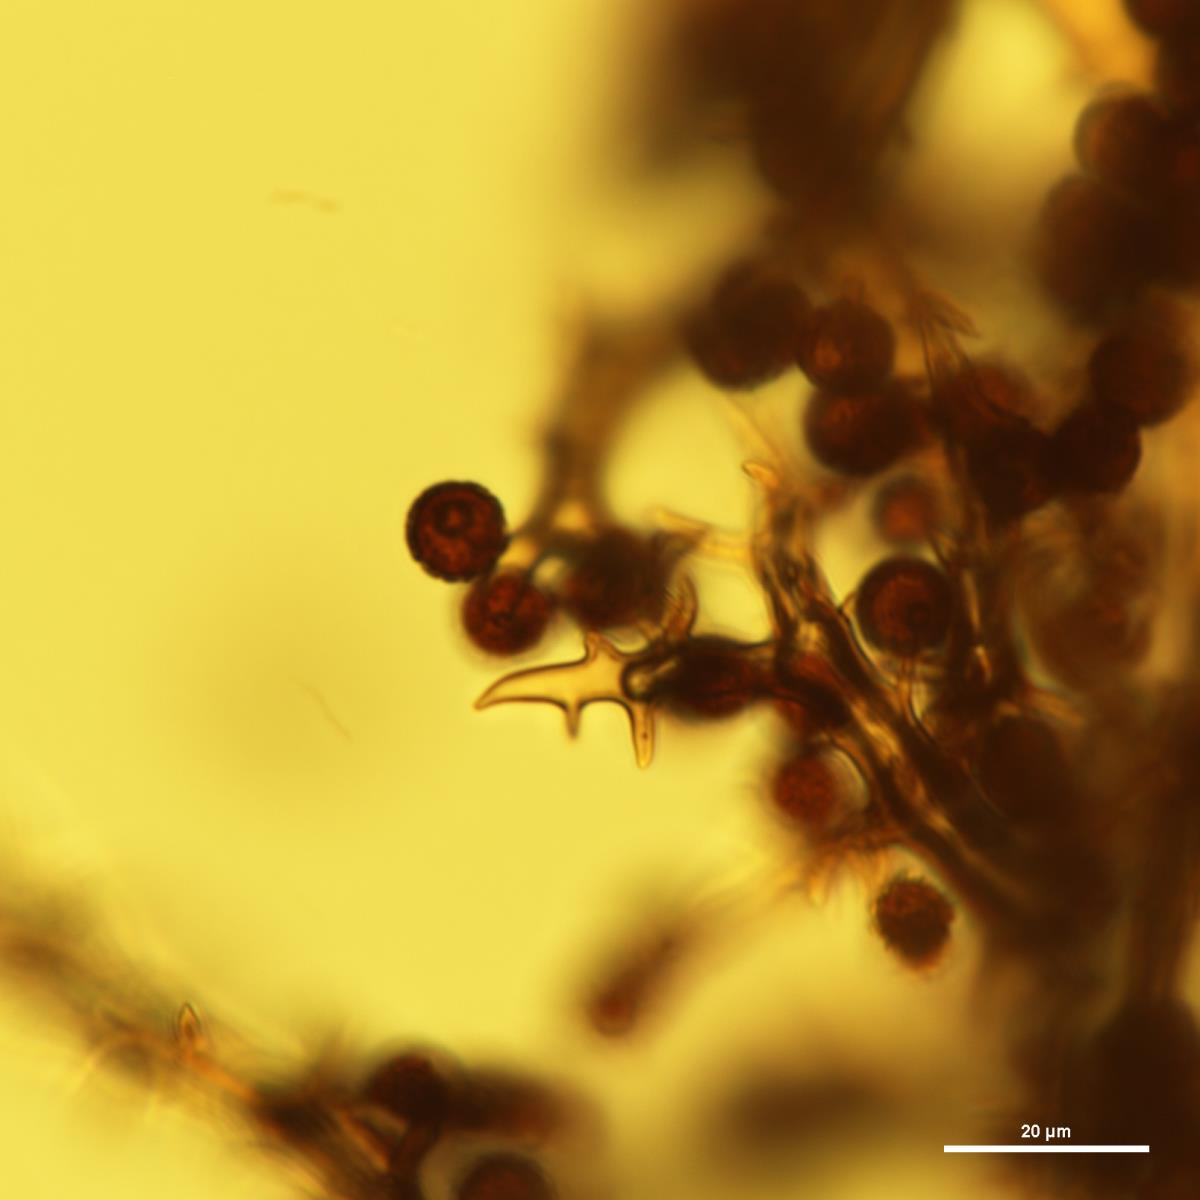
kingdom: Fungi
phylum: Basidiomycota
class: Agaricomycetes
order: Agaricales
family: Agaricaceae
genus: Mycenastrum
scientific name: Mycenastrum corium
